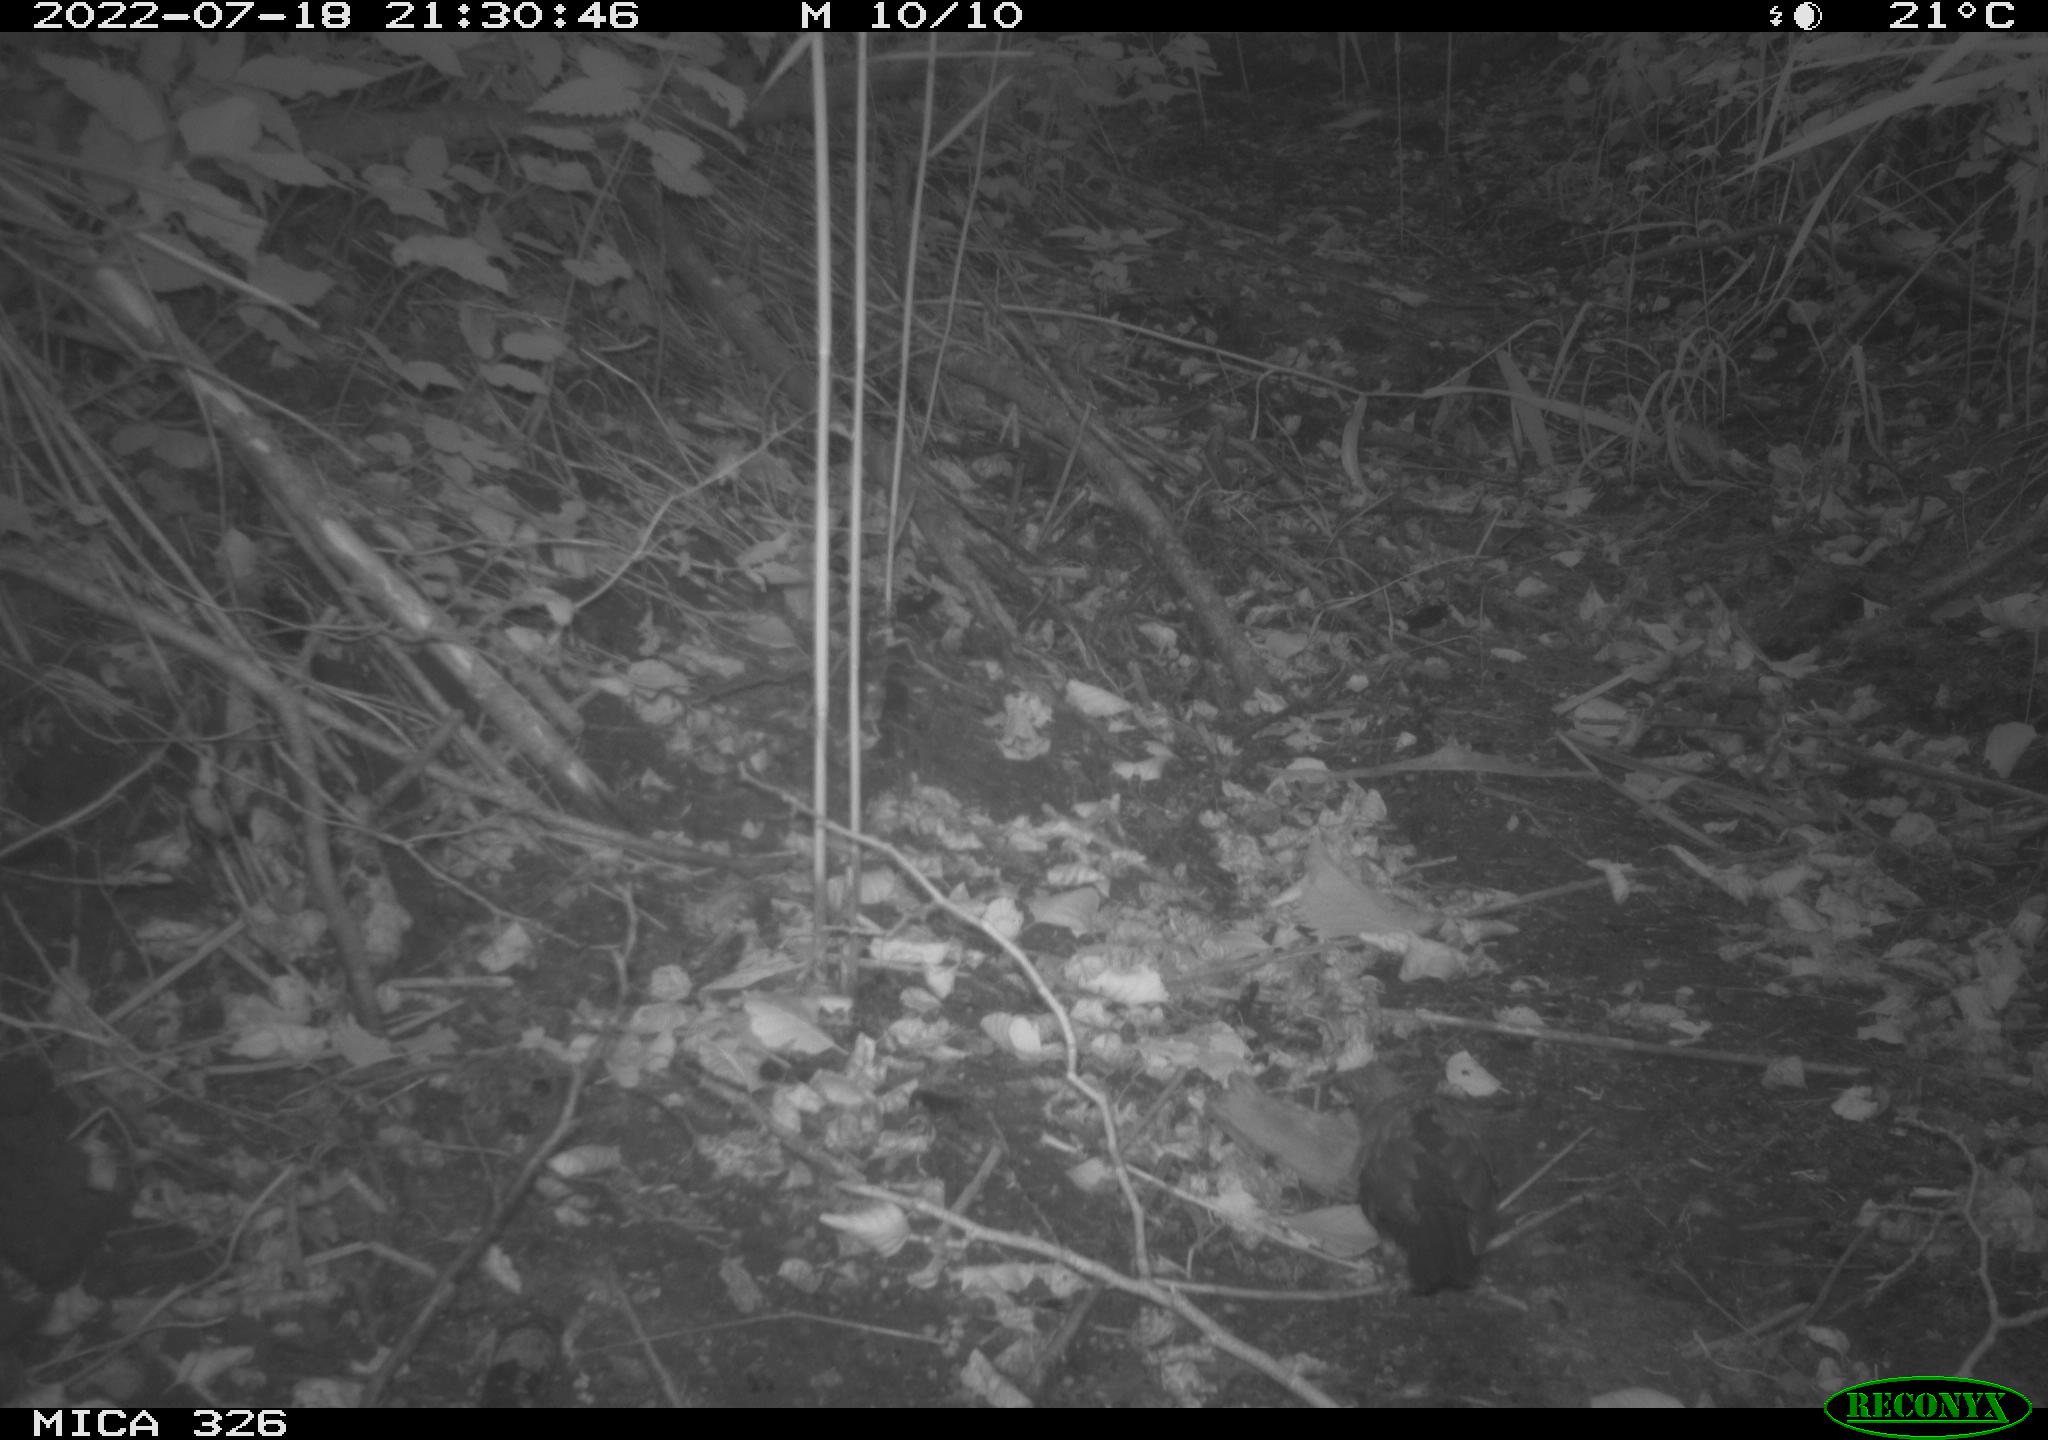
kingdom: Animalia
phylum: Chordata
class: Aves
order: Passeriformes
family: Turdidae
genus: Turdus
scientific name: Turdus
